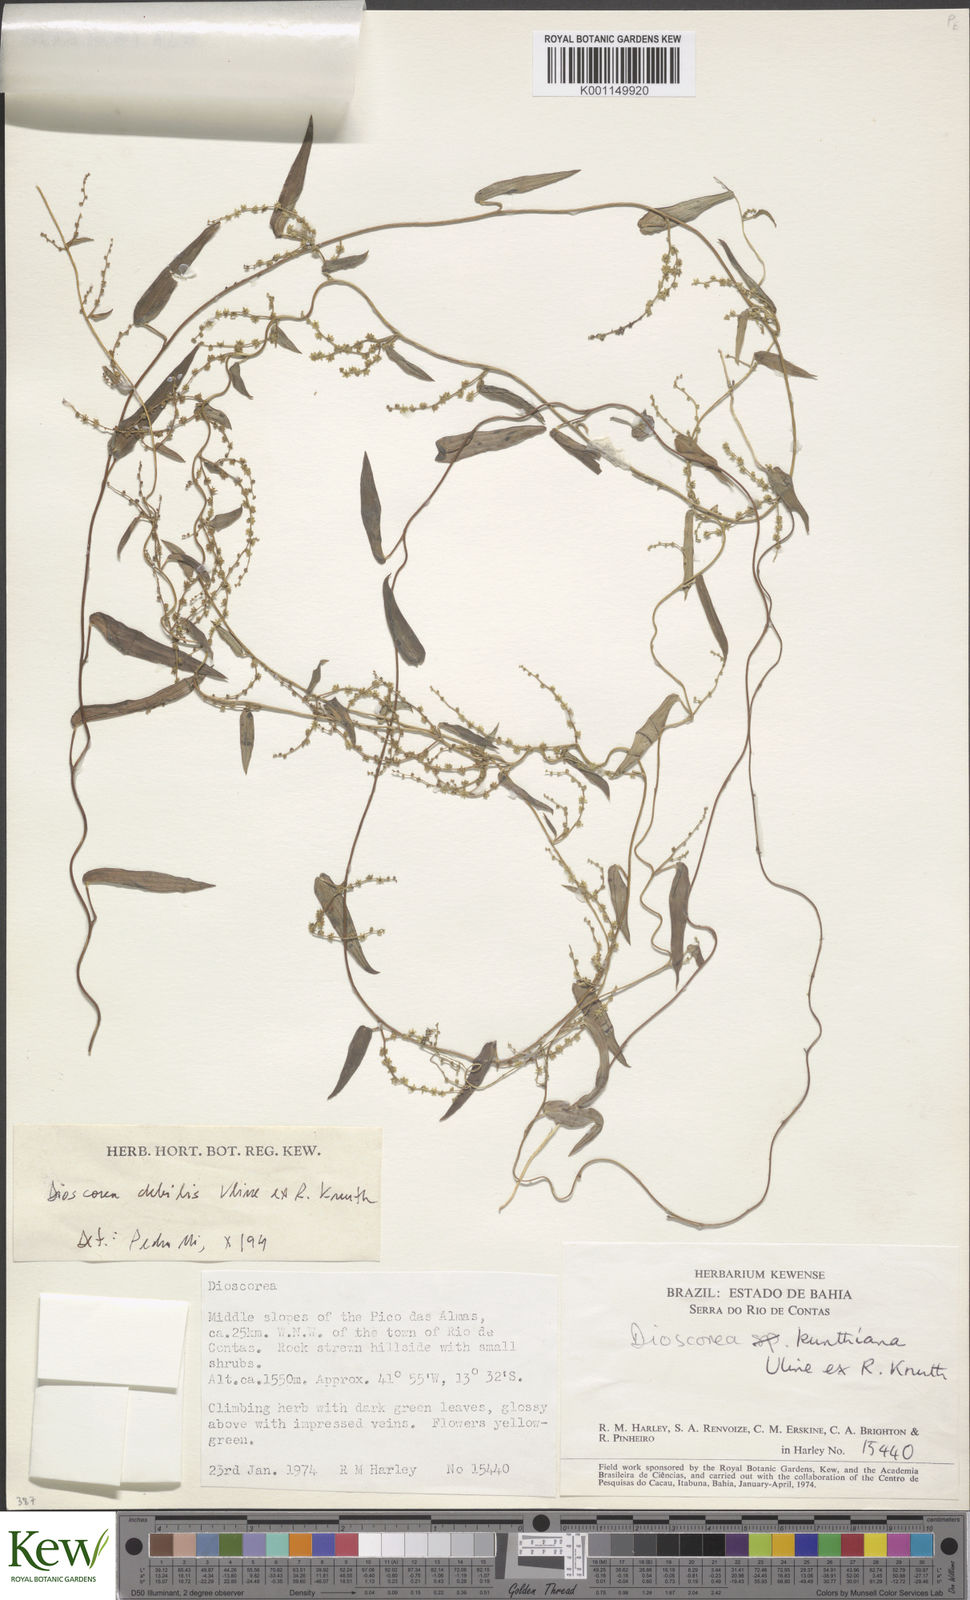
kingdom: Plantae
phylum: Tracheophyta
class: Liliopsida
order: Dioscoreales
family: Dioscoreaceae
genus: Dioscorea
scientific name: Dioscorea debilis
